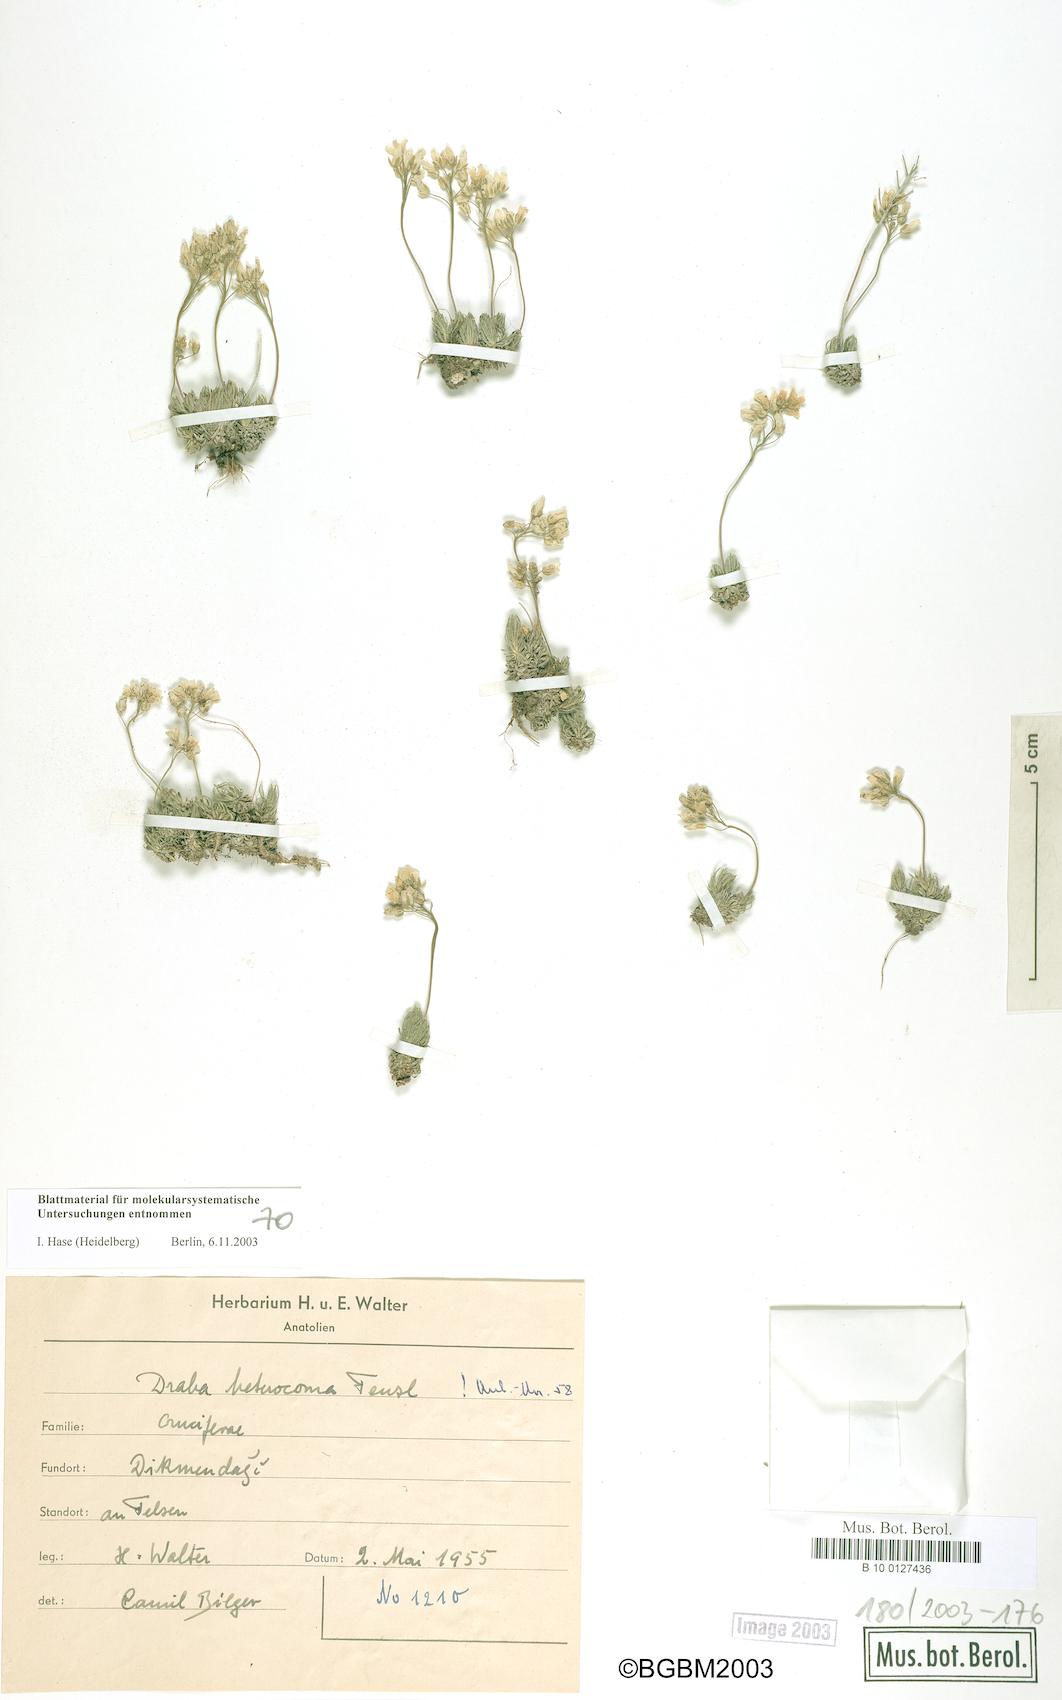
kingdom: Plantae
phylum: Tracheophyta
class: Magnoliopsida
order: Brassicales
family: Brassicaceae
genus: Draba
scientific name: Draba heterocoma
